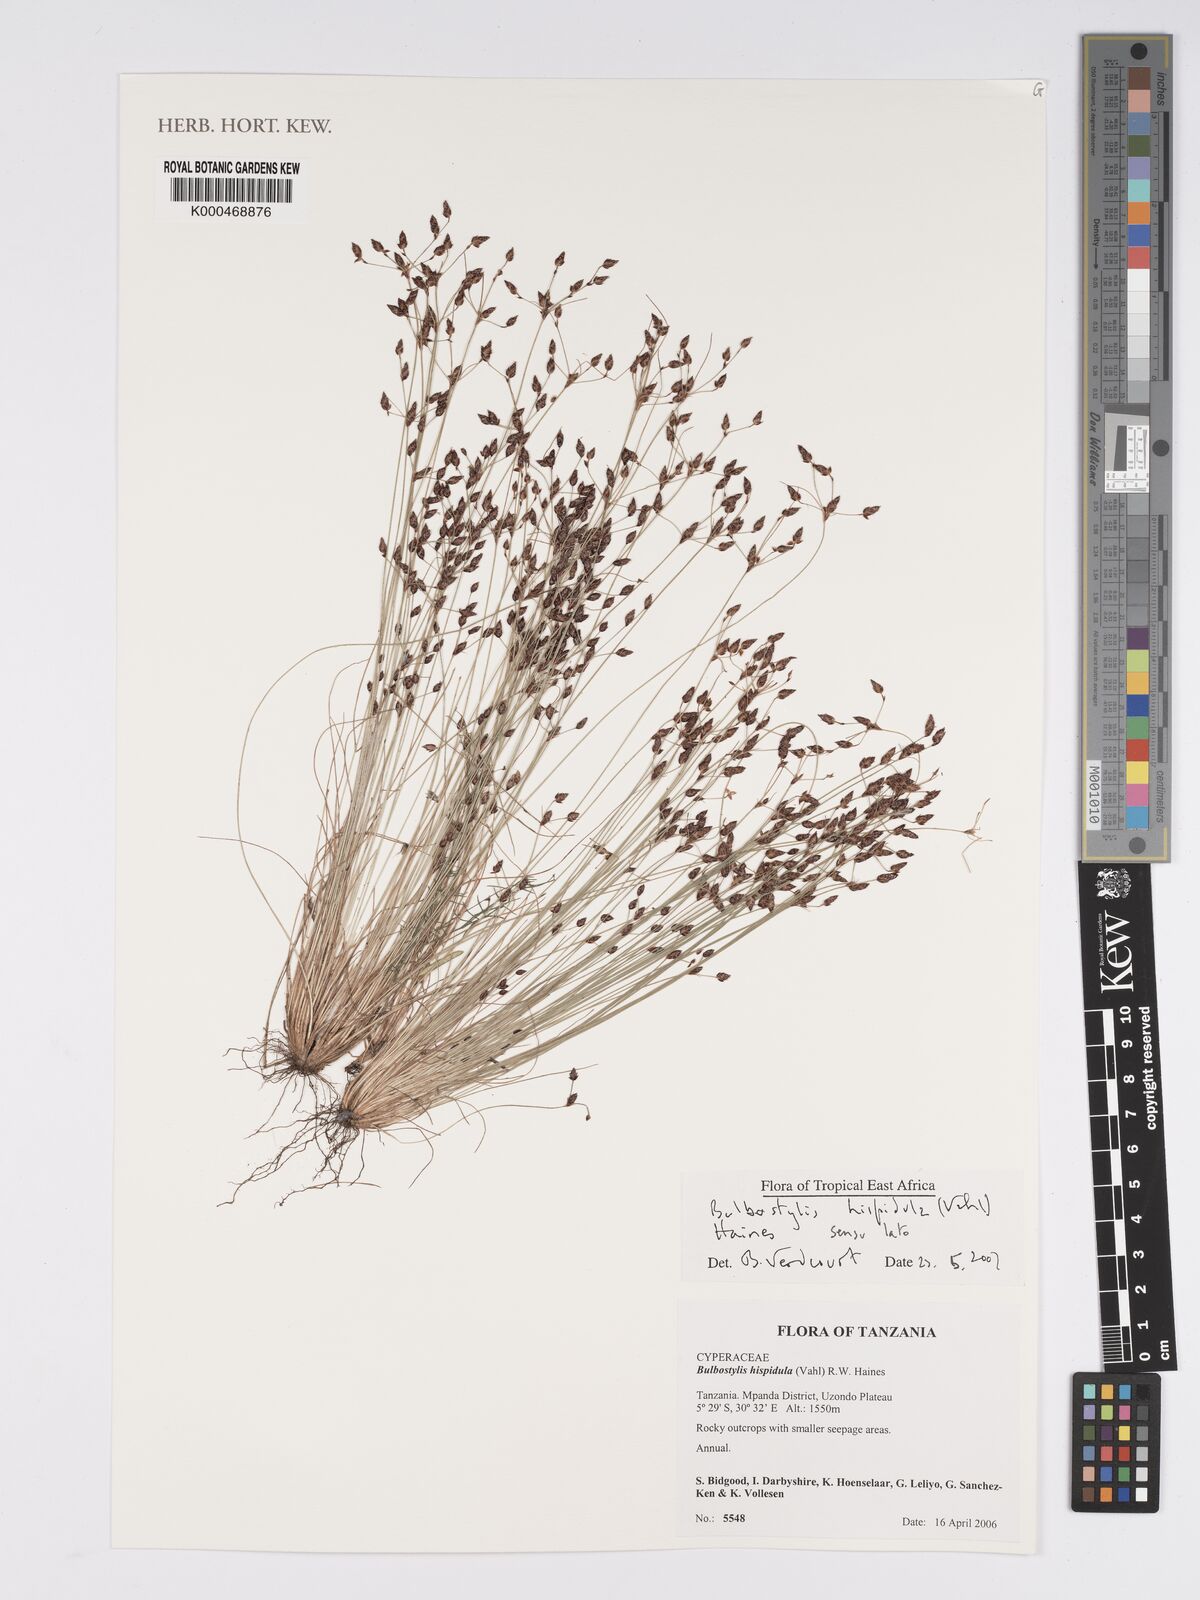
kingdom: Plantae
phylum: Tracheophyta
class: Liliopsida
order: Poales
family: Cyperaceae
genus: Bulbostylis
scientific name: Bulbostylis hispidula
